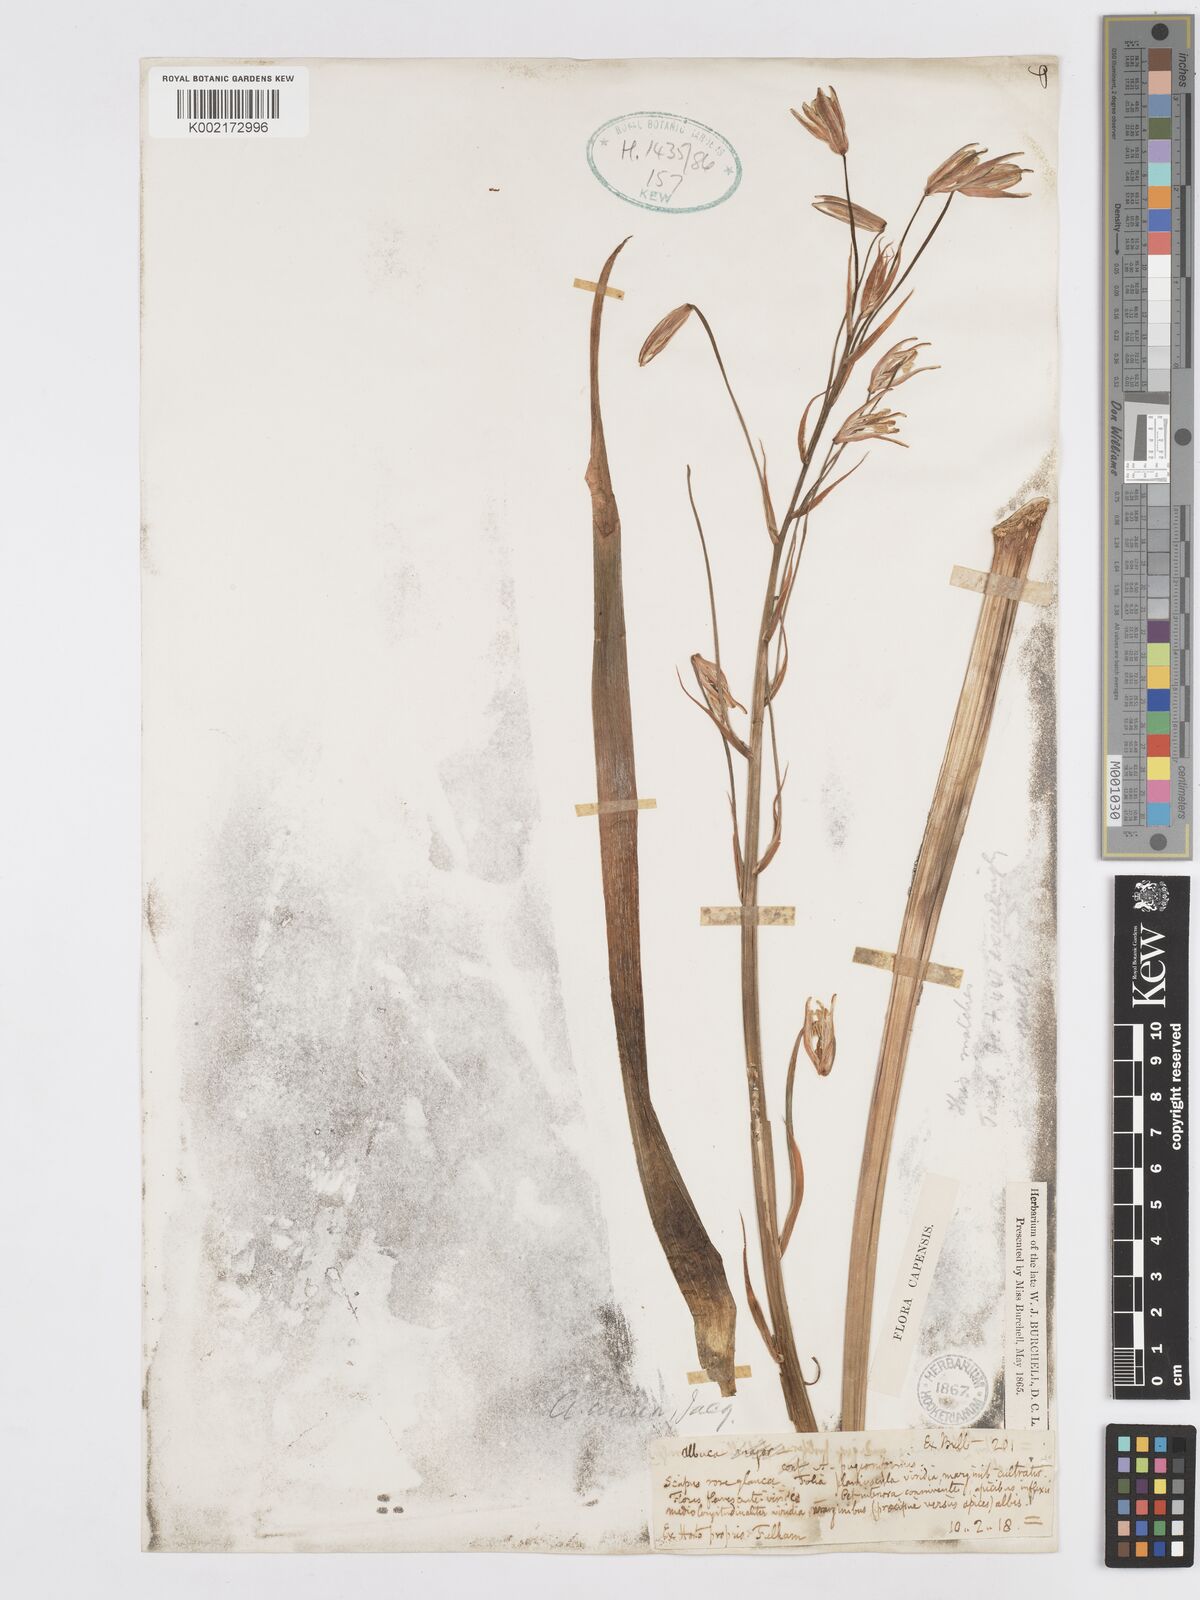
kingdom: Plantae
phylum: Tracheophyta
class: Liliopsida
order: Asparagales
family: Asparagaceae
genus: Albuca
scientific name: Albuca aurea
